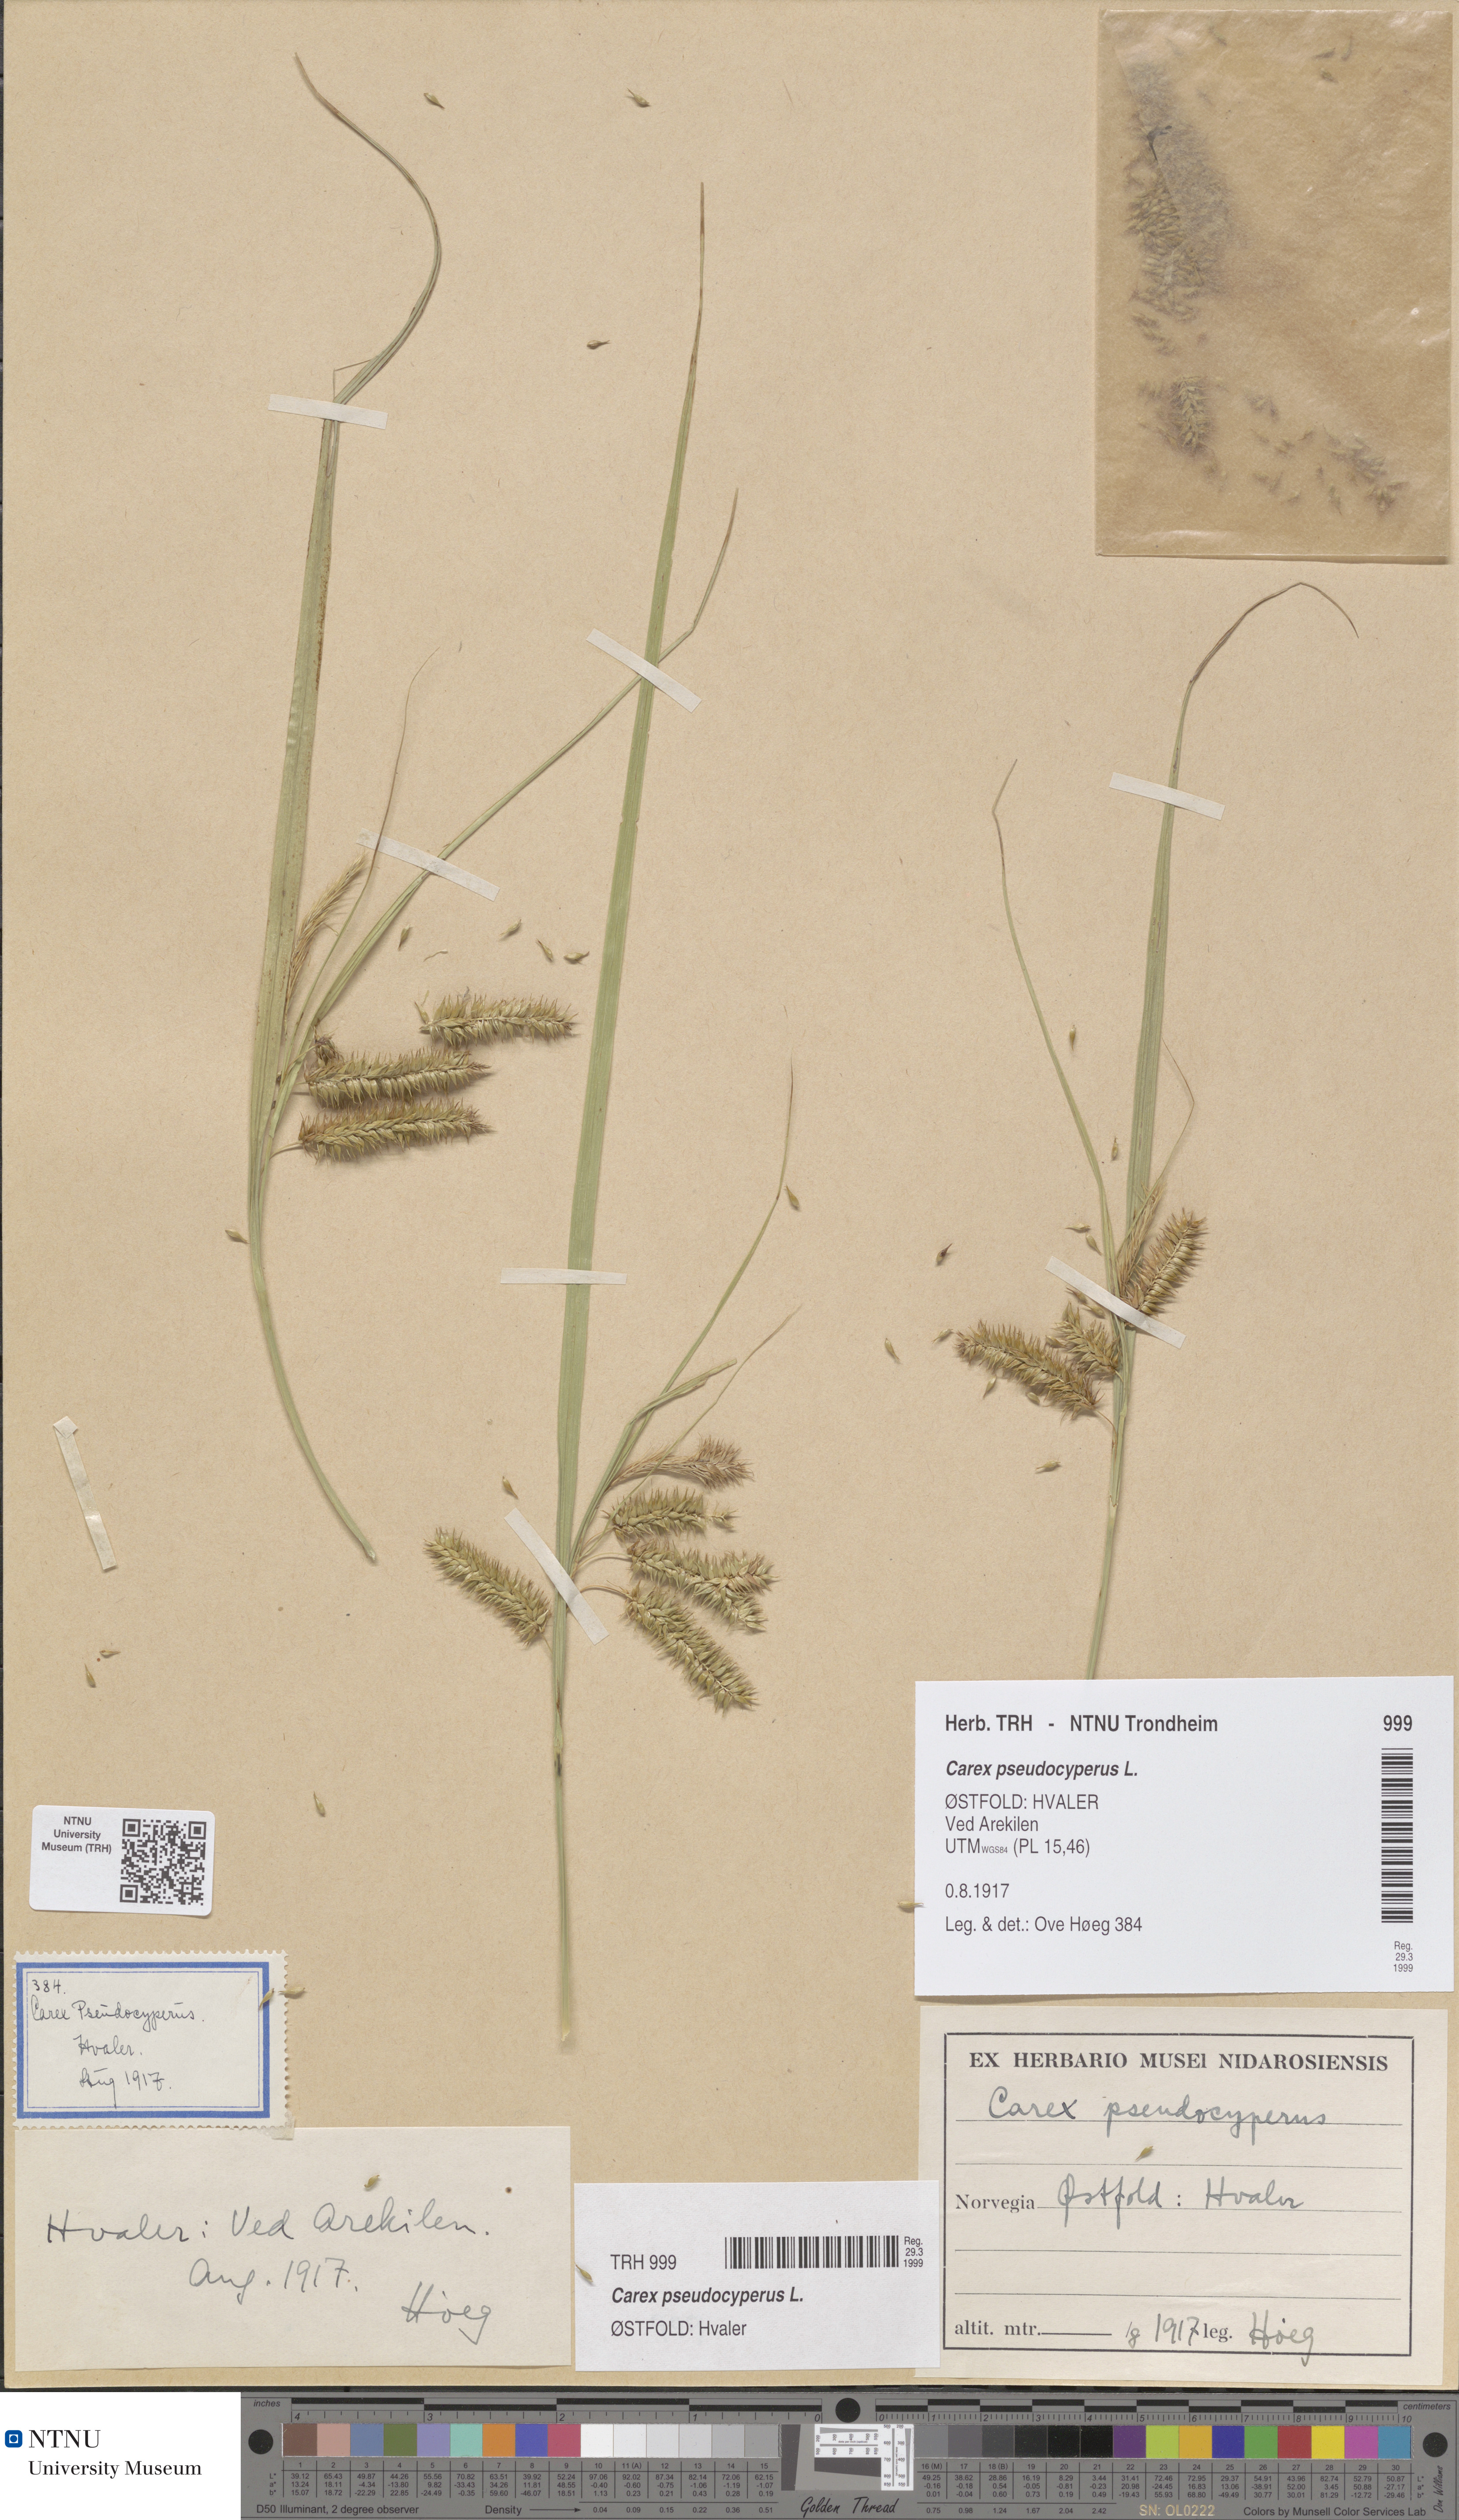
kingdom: Plantae
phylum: Tracheophyta
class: Liliopsida
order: Poales
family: Cyperaceae
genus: Carex
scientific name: Carex pseudocyperus
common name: Cyperus sedge
